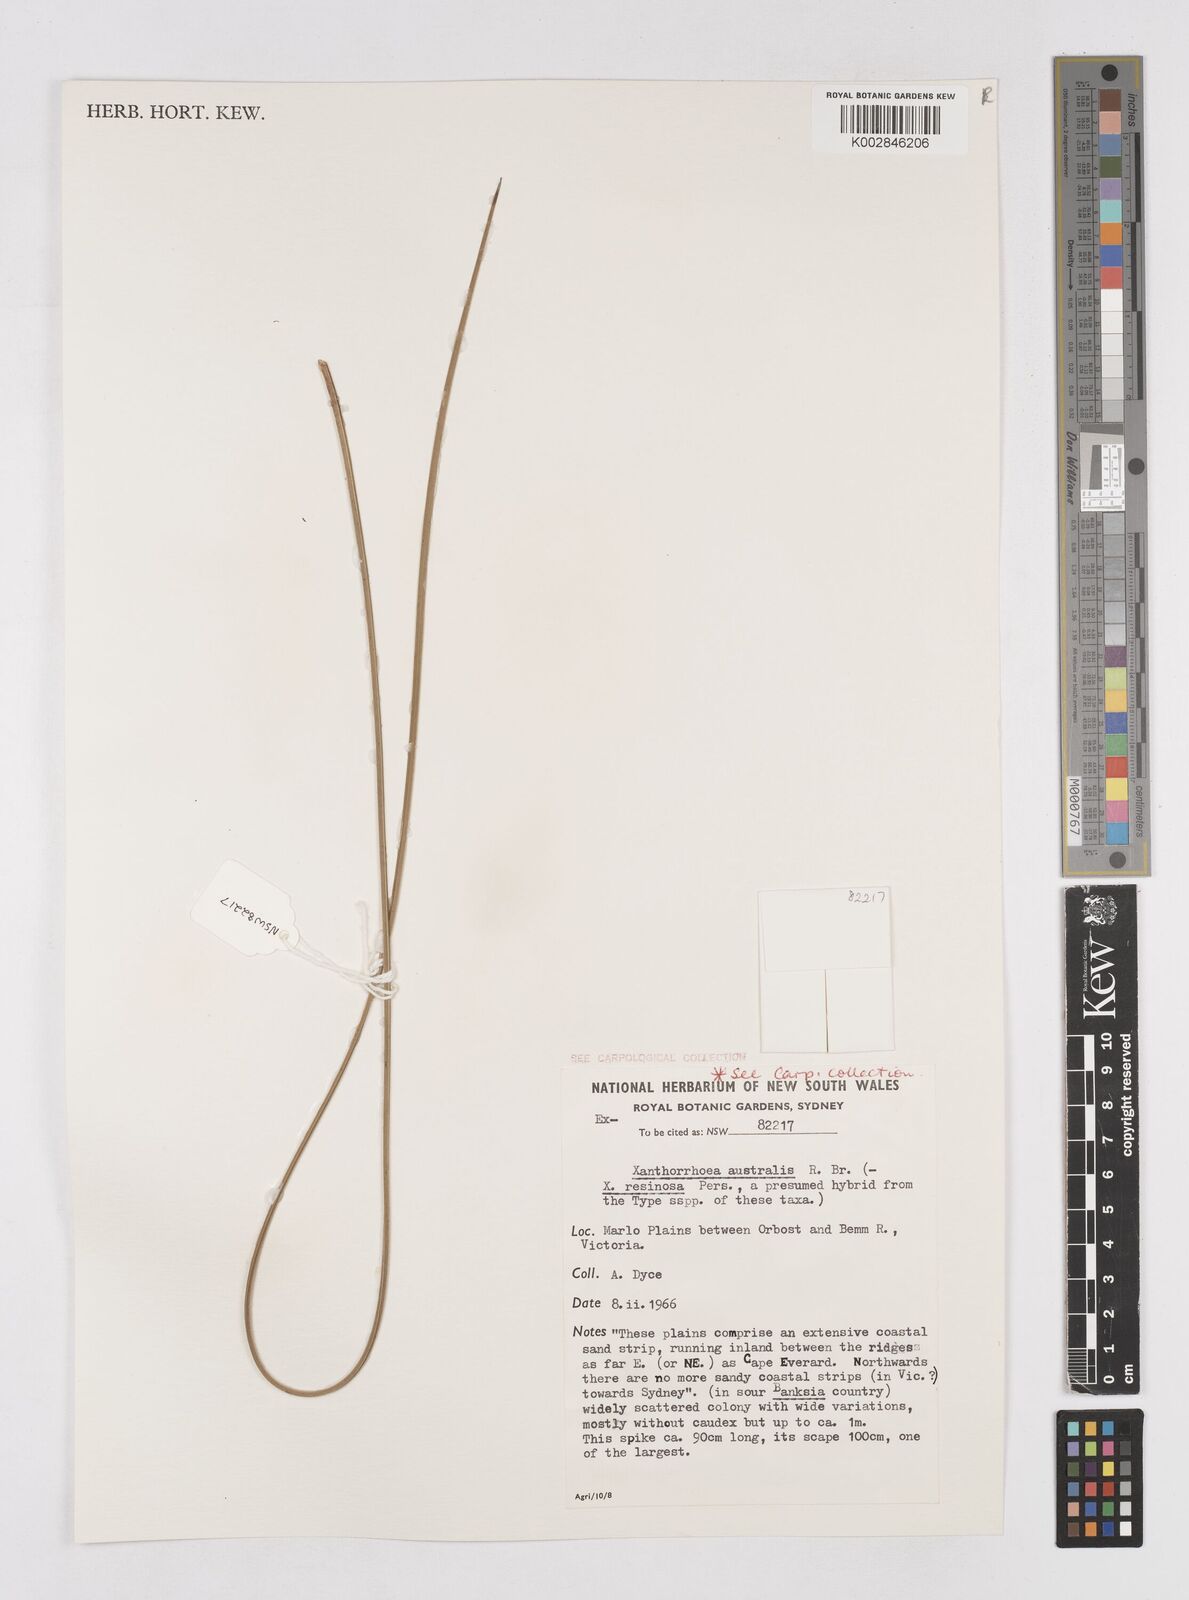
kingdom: Plantae
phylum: Tracheophyta
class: Liliopsida
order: Asparagales
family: Asphodelaceae
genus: Xanthorrhoea
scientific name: Xanthorrhoea australis
